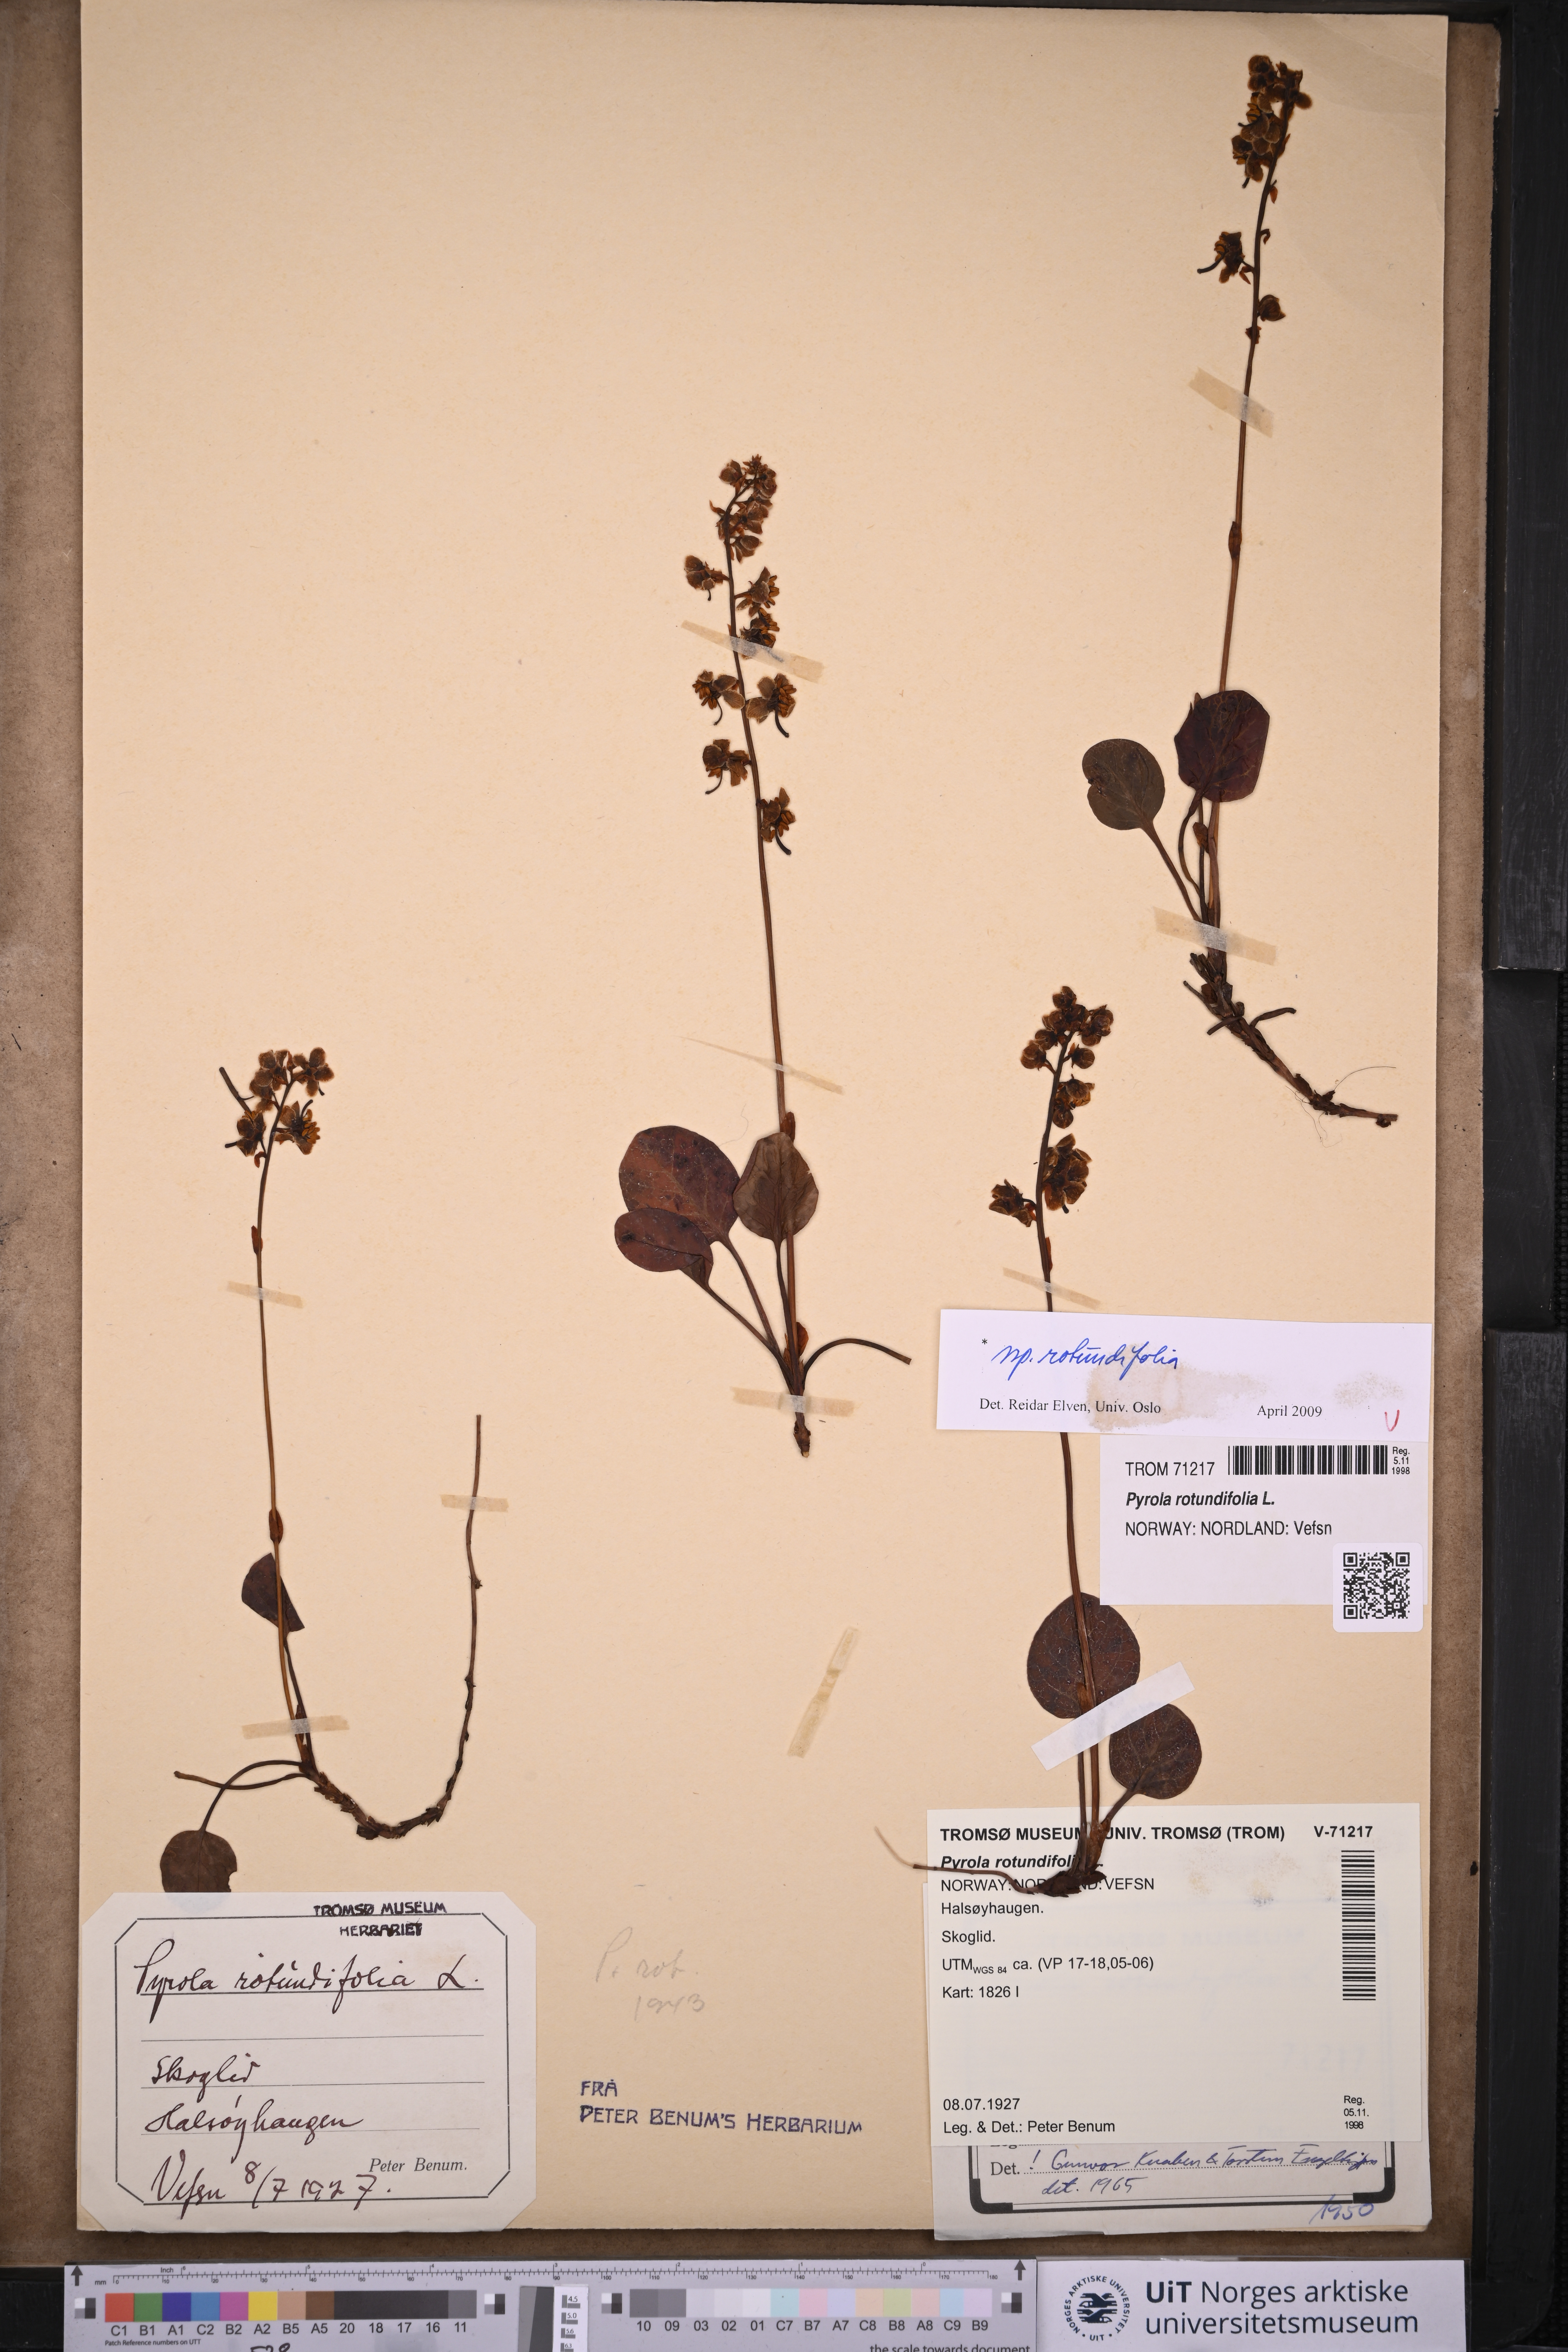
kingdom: Plantae
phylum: Tracheophyta
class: Magnoliopsida
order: Ericales
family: Ericaceae
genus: Pyrola
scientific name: Pyrola rotundifolia
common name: Round-leaved wintergreen
